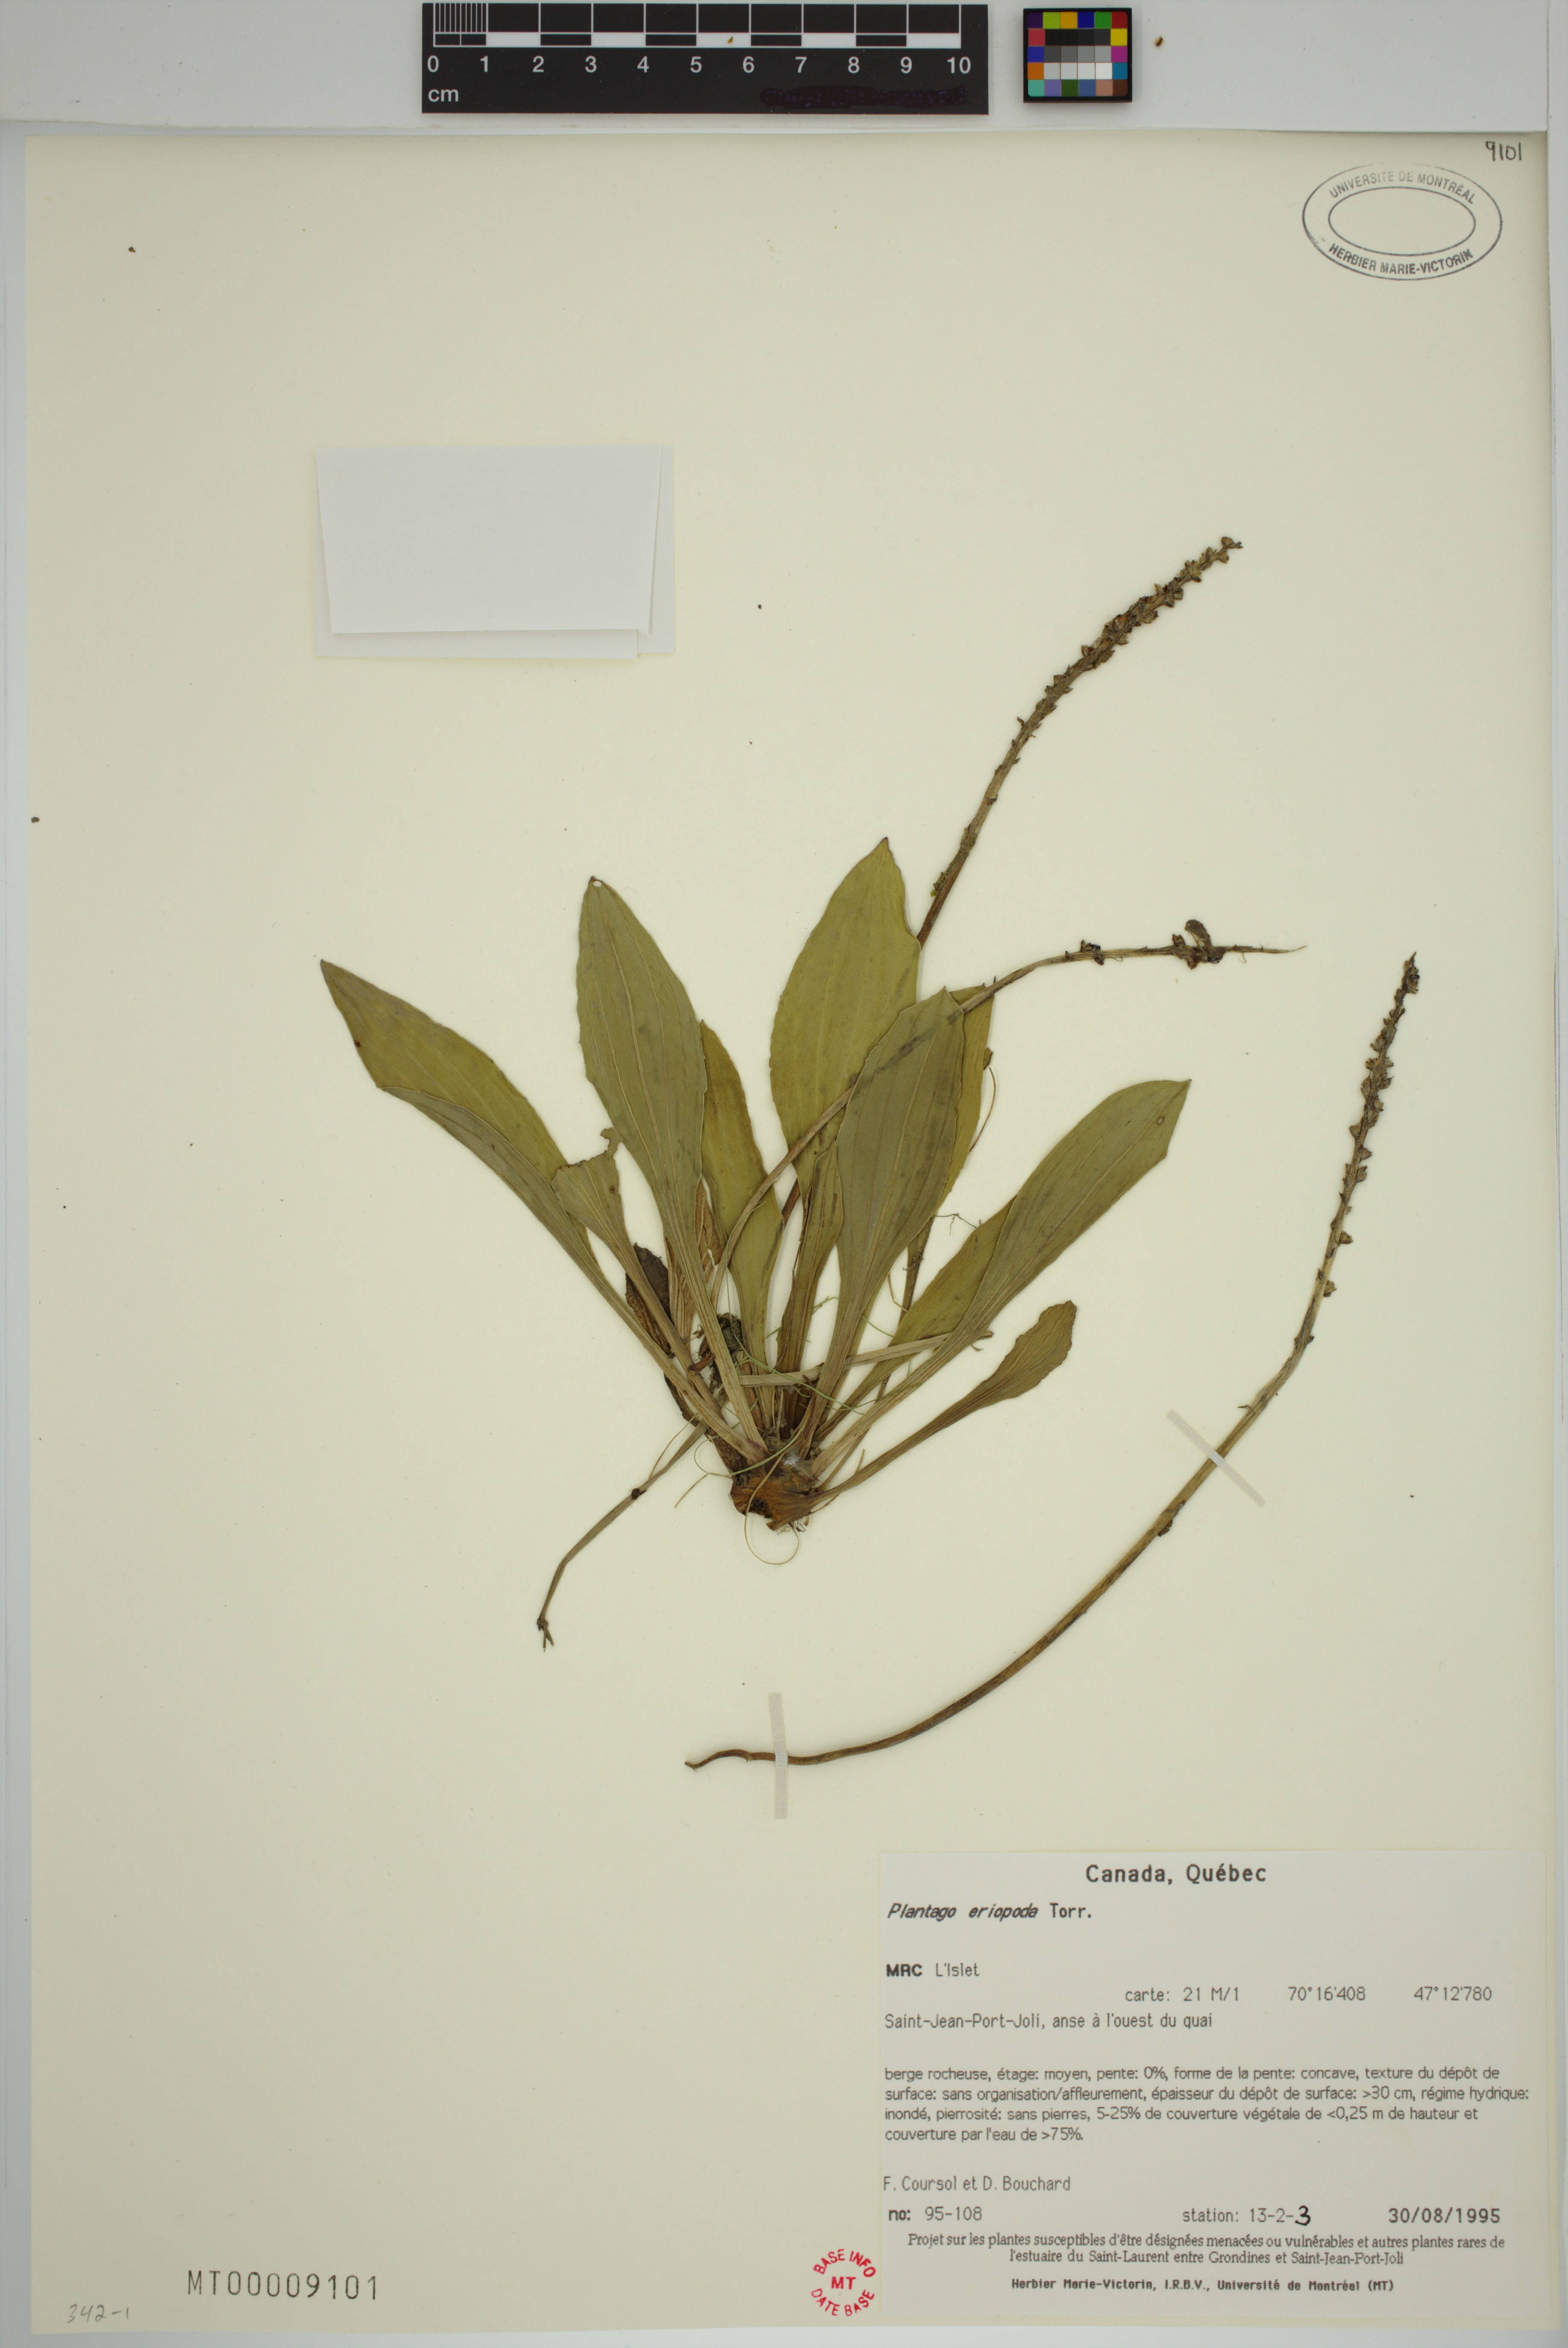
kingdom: Plantae
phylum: Tracheophyta
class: Magnoliopsida
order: Lamiales
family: Plantaginaceae
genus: Plantago
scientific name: Plantago eriopoda
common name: Alkali plantain
